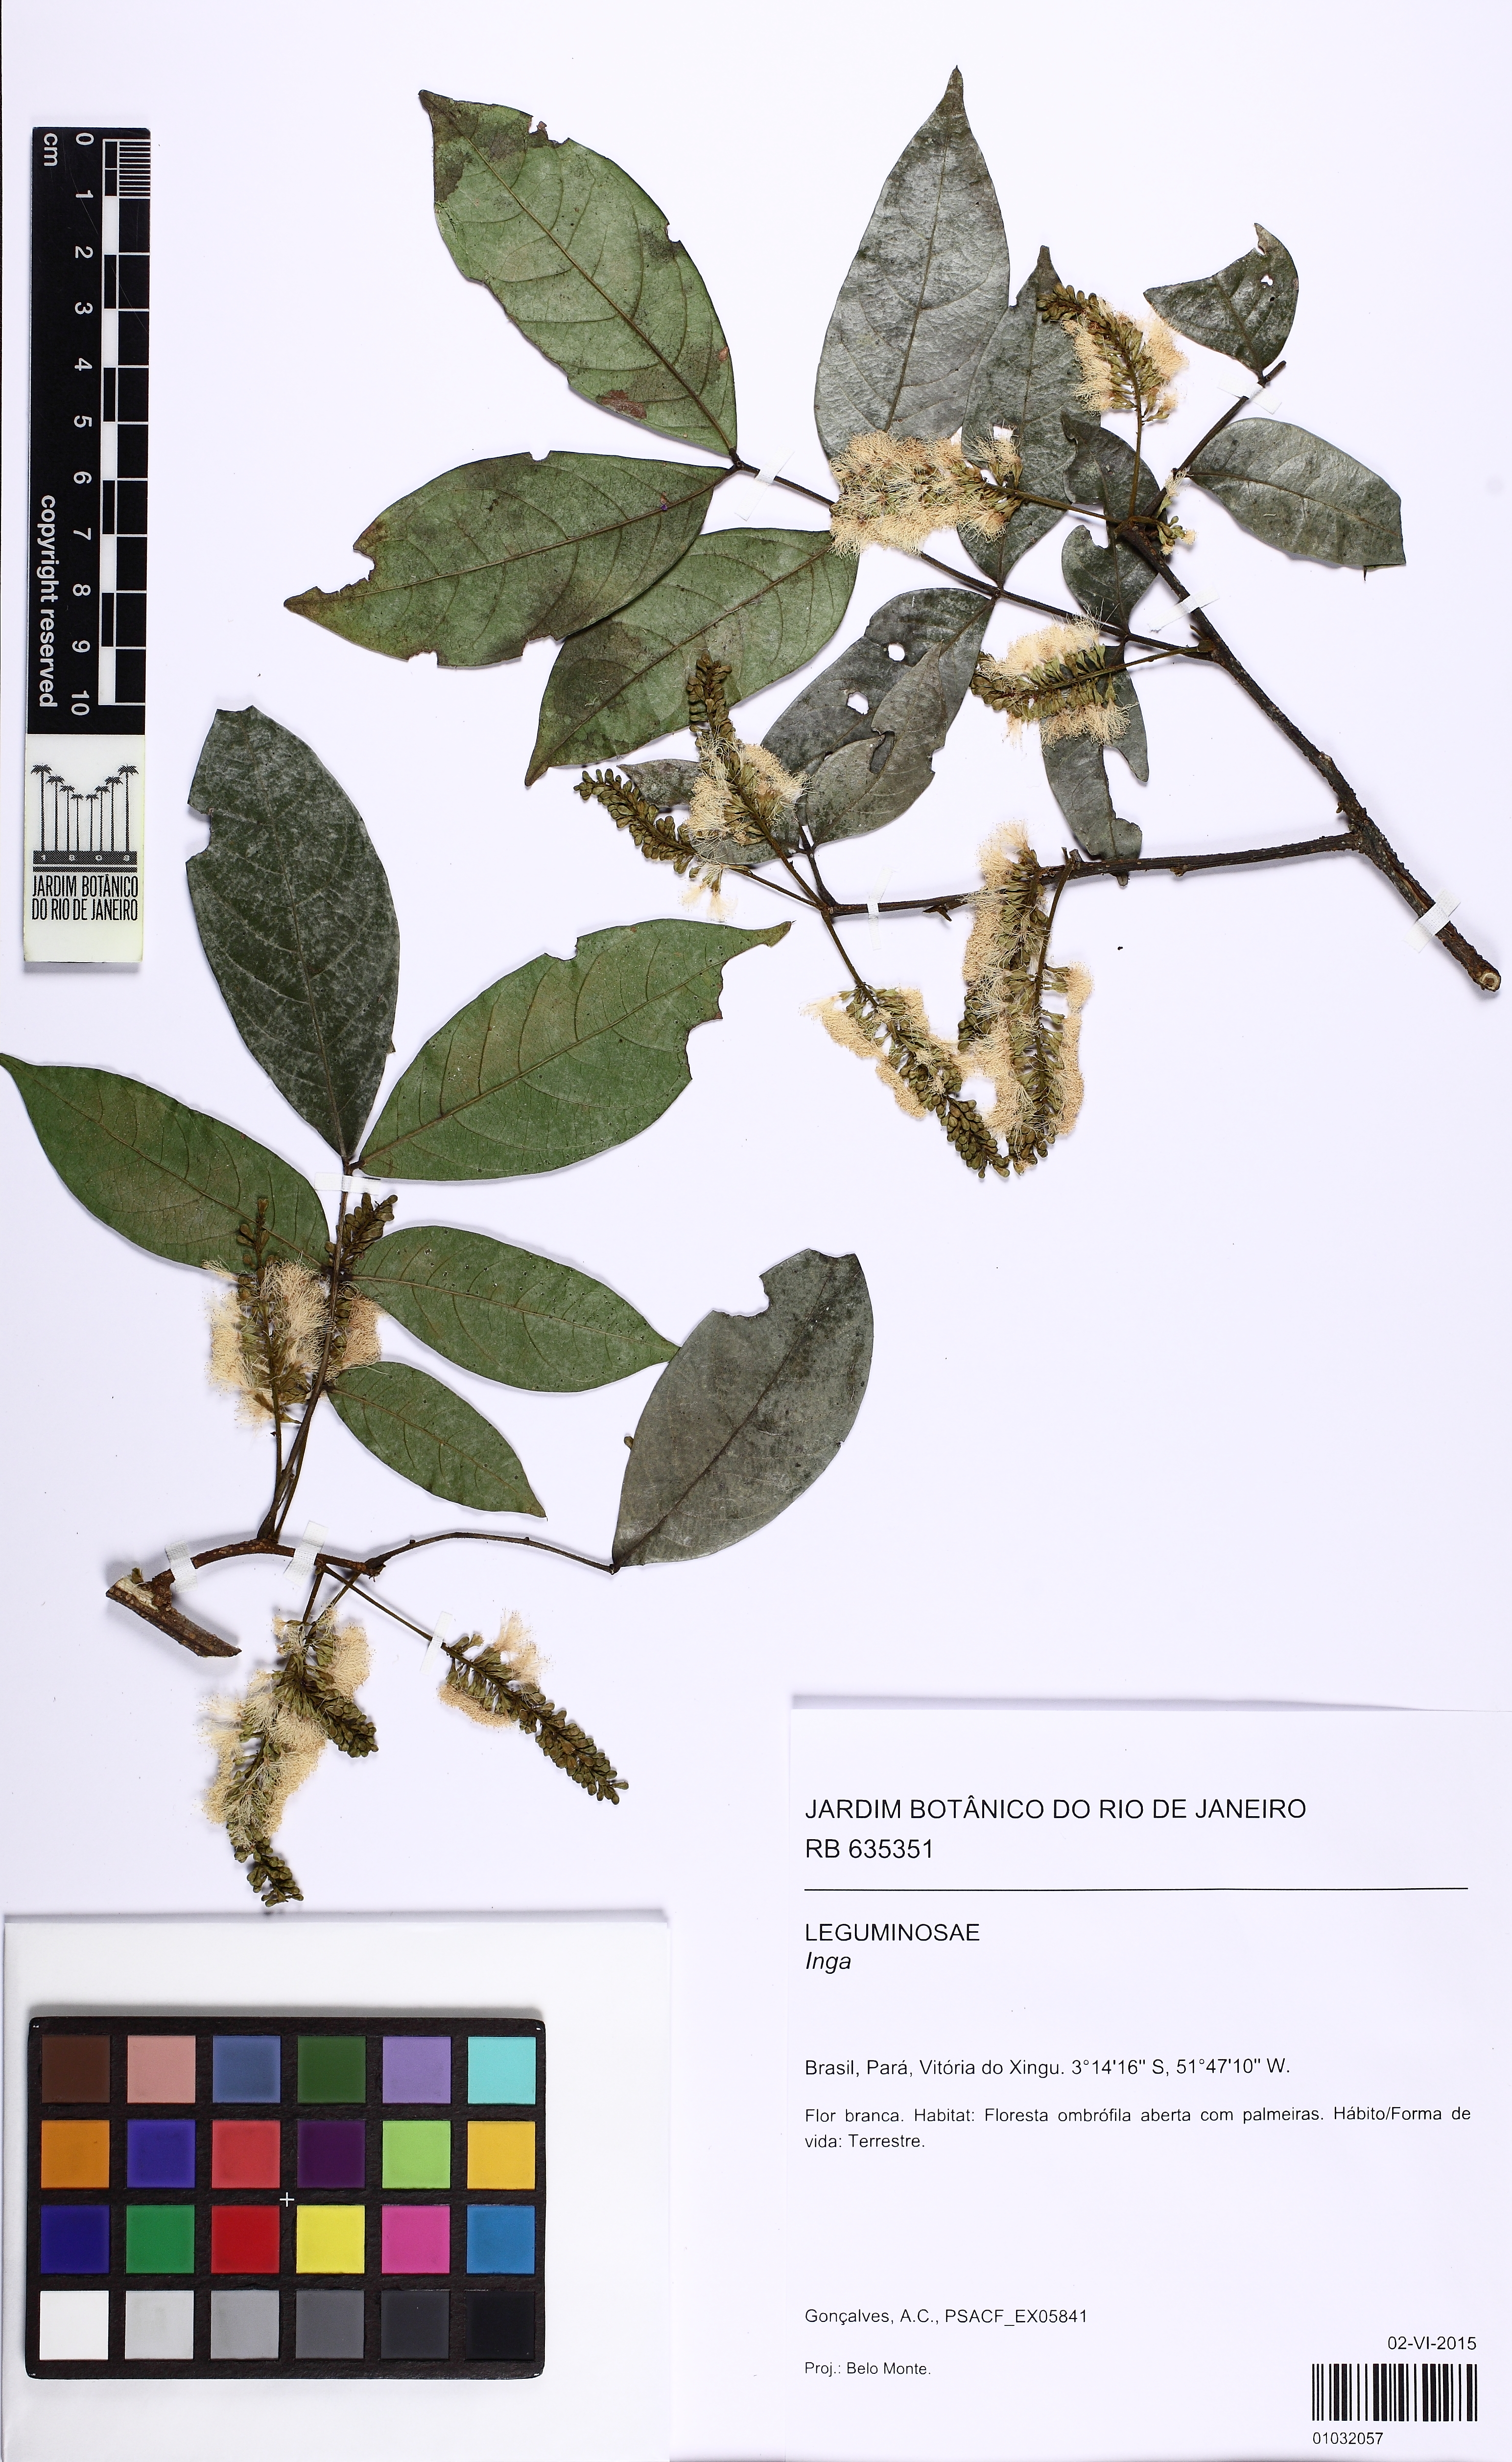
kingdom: Plantae
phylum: Tracheophyta
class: Magnoliopsida
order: Fabales
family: Fabaceae
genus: Inga
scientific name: Inga
